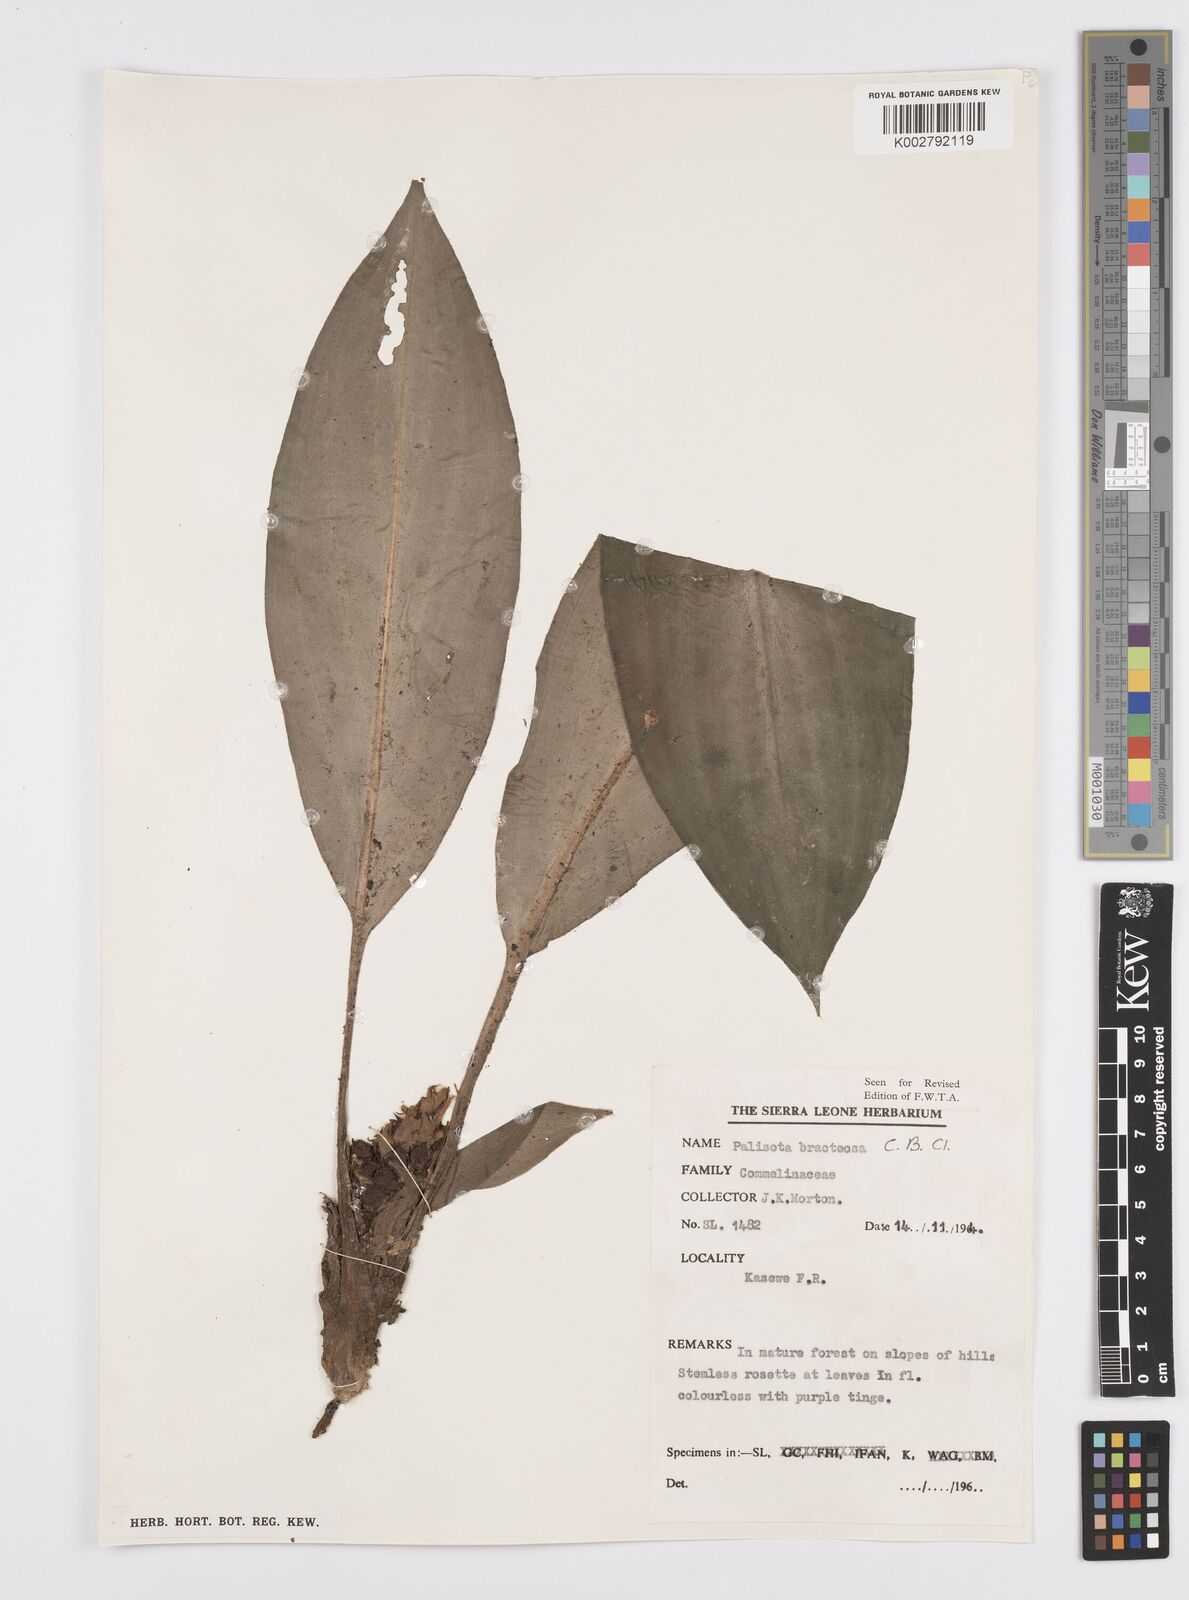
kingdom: Plantae
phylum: Tracheophyta
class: Liliopsida
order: Commelinales
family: Commelinaceae
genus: Palisota
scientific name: Palisota bracteosa
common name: Palisota
